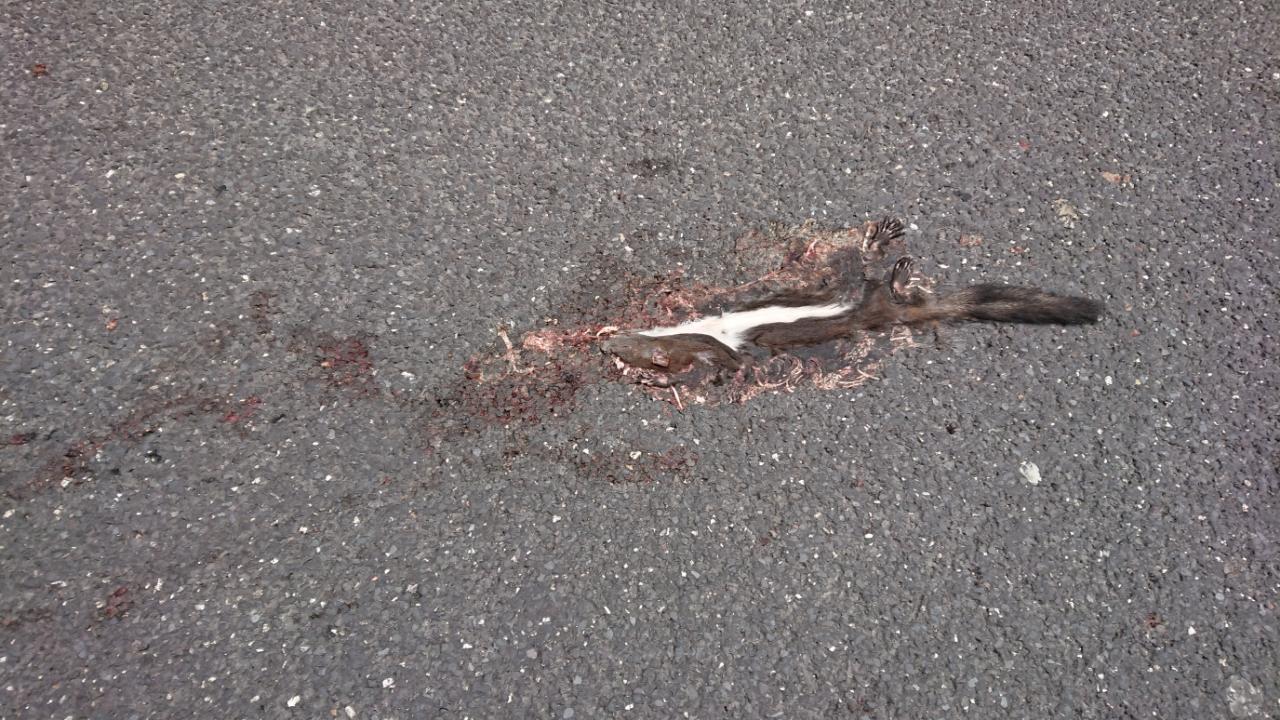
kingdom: Animalia
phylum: Chordata
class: Mammalia
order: Rodentia
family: Sciuridae
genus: Sciurus
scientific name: Sciurus vulgaris
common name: Eurasian red squirrel
